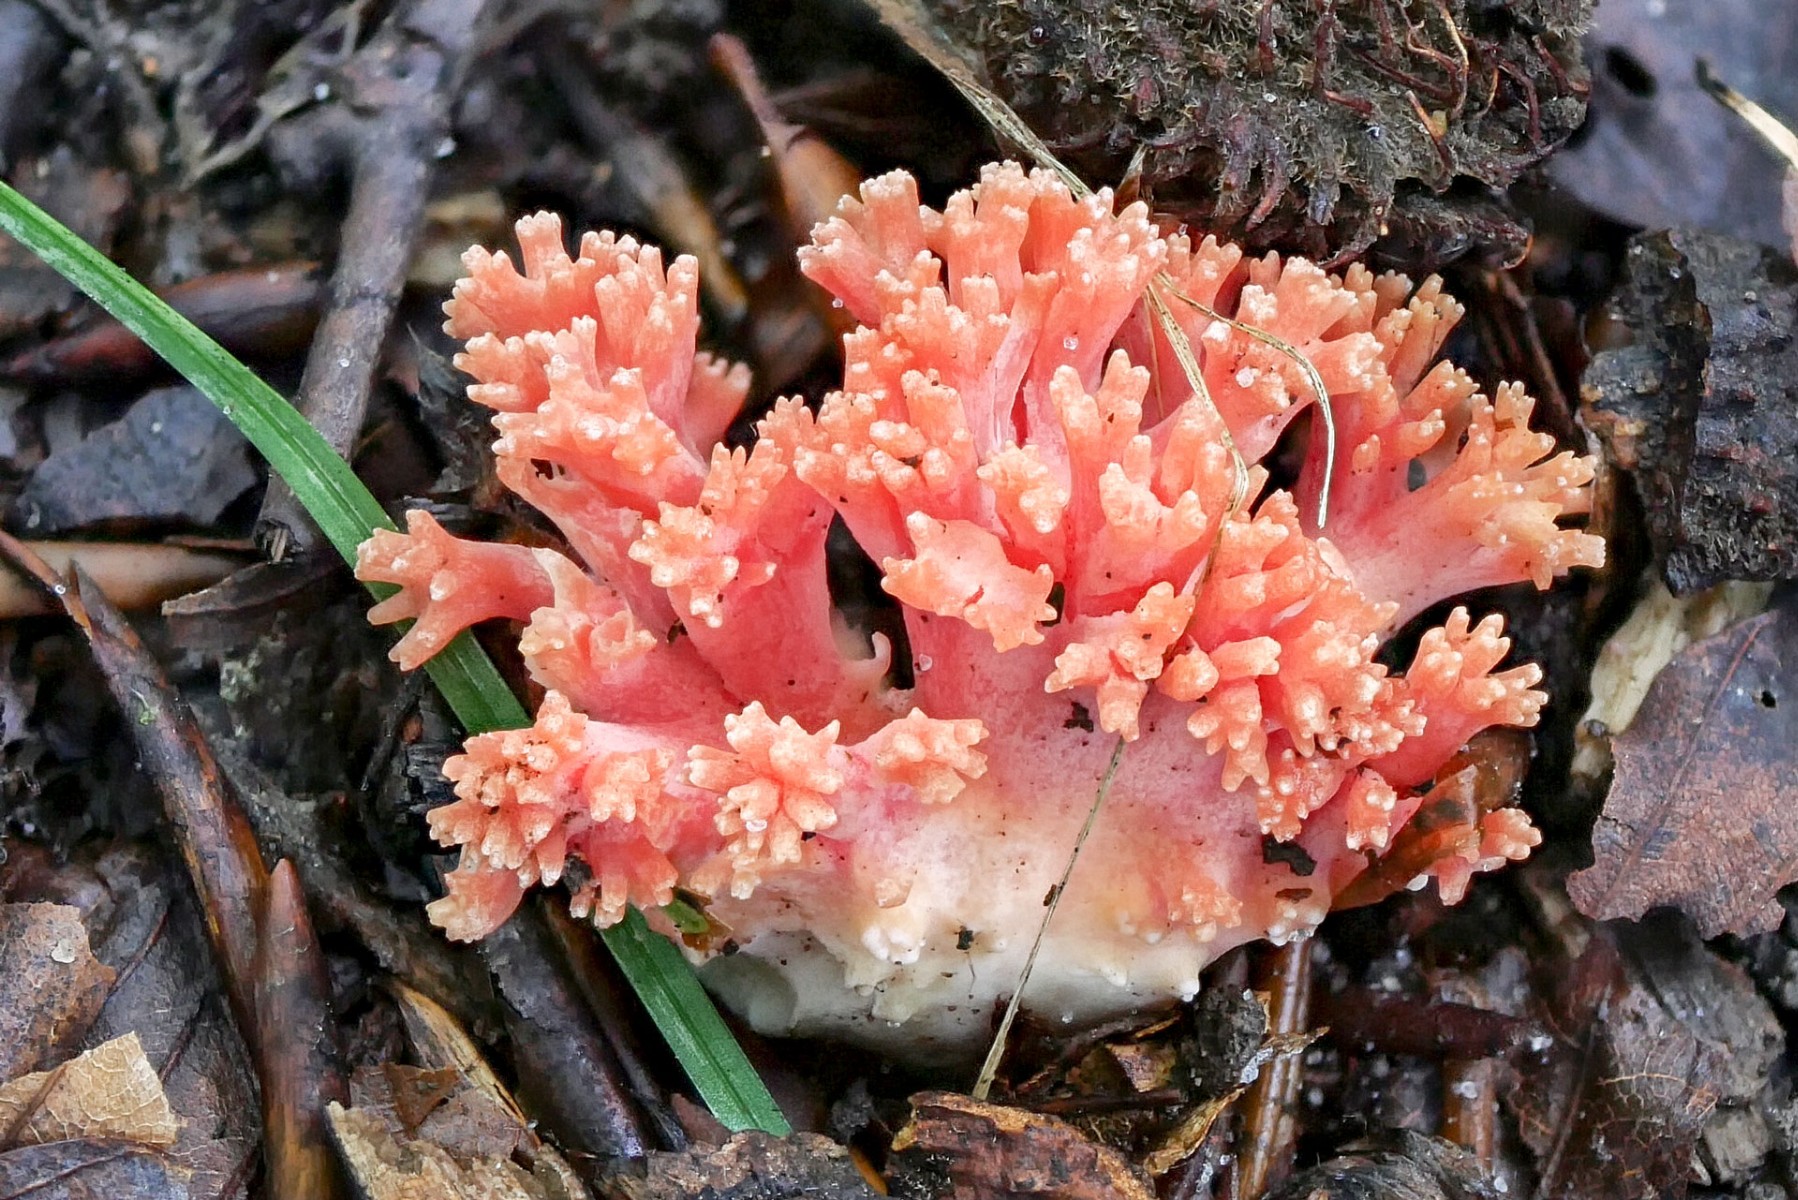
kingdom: Fungi
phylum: Basidiomycota
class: Agaricomycetes
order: Gomphales
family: Gomphaceae
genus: Ramaria
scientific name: Ramaria fagetorum
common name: abrikos-koralsvamp
